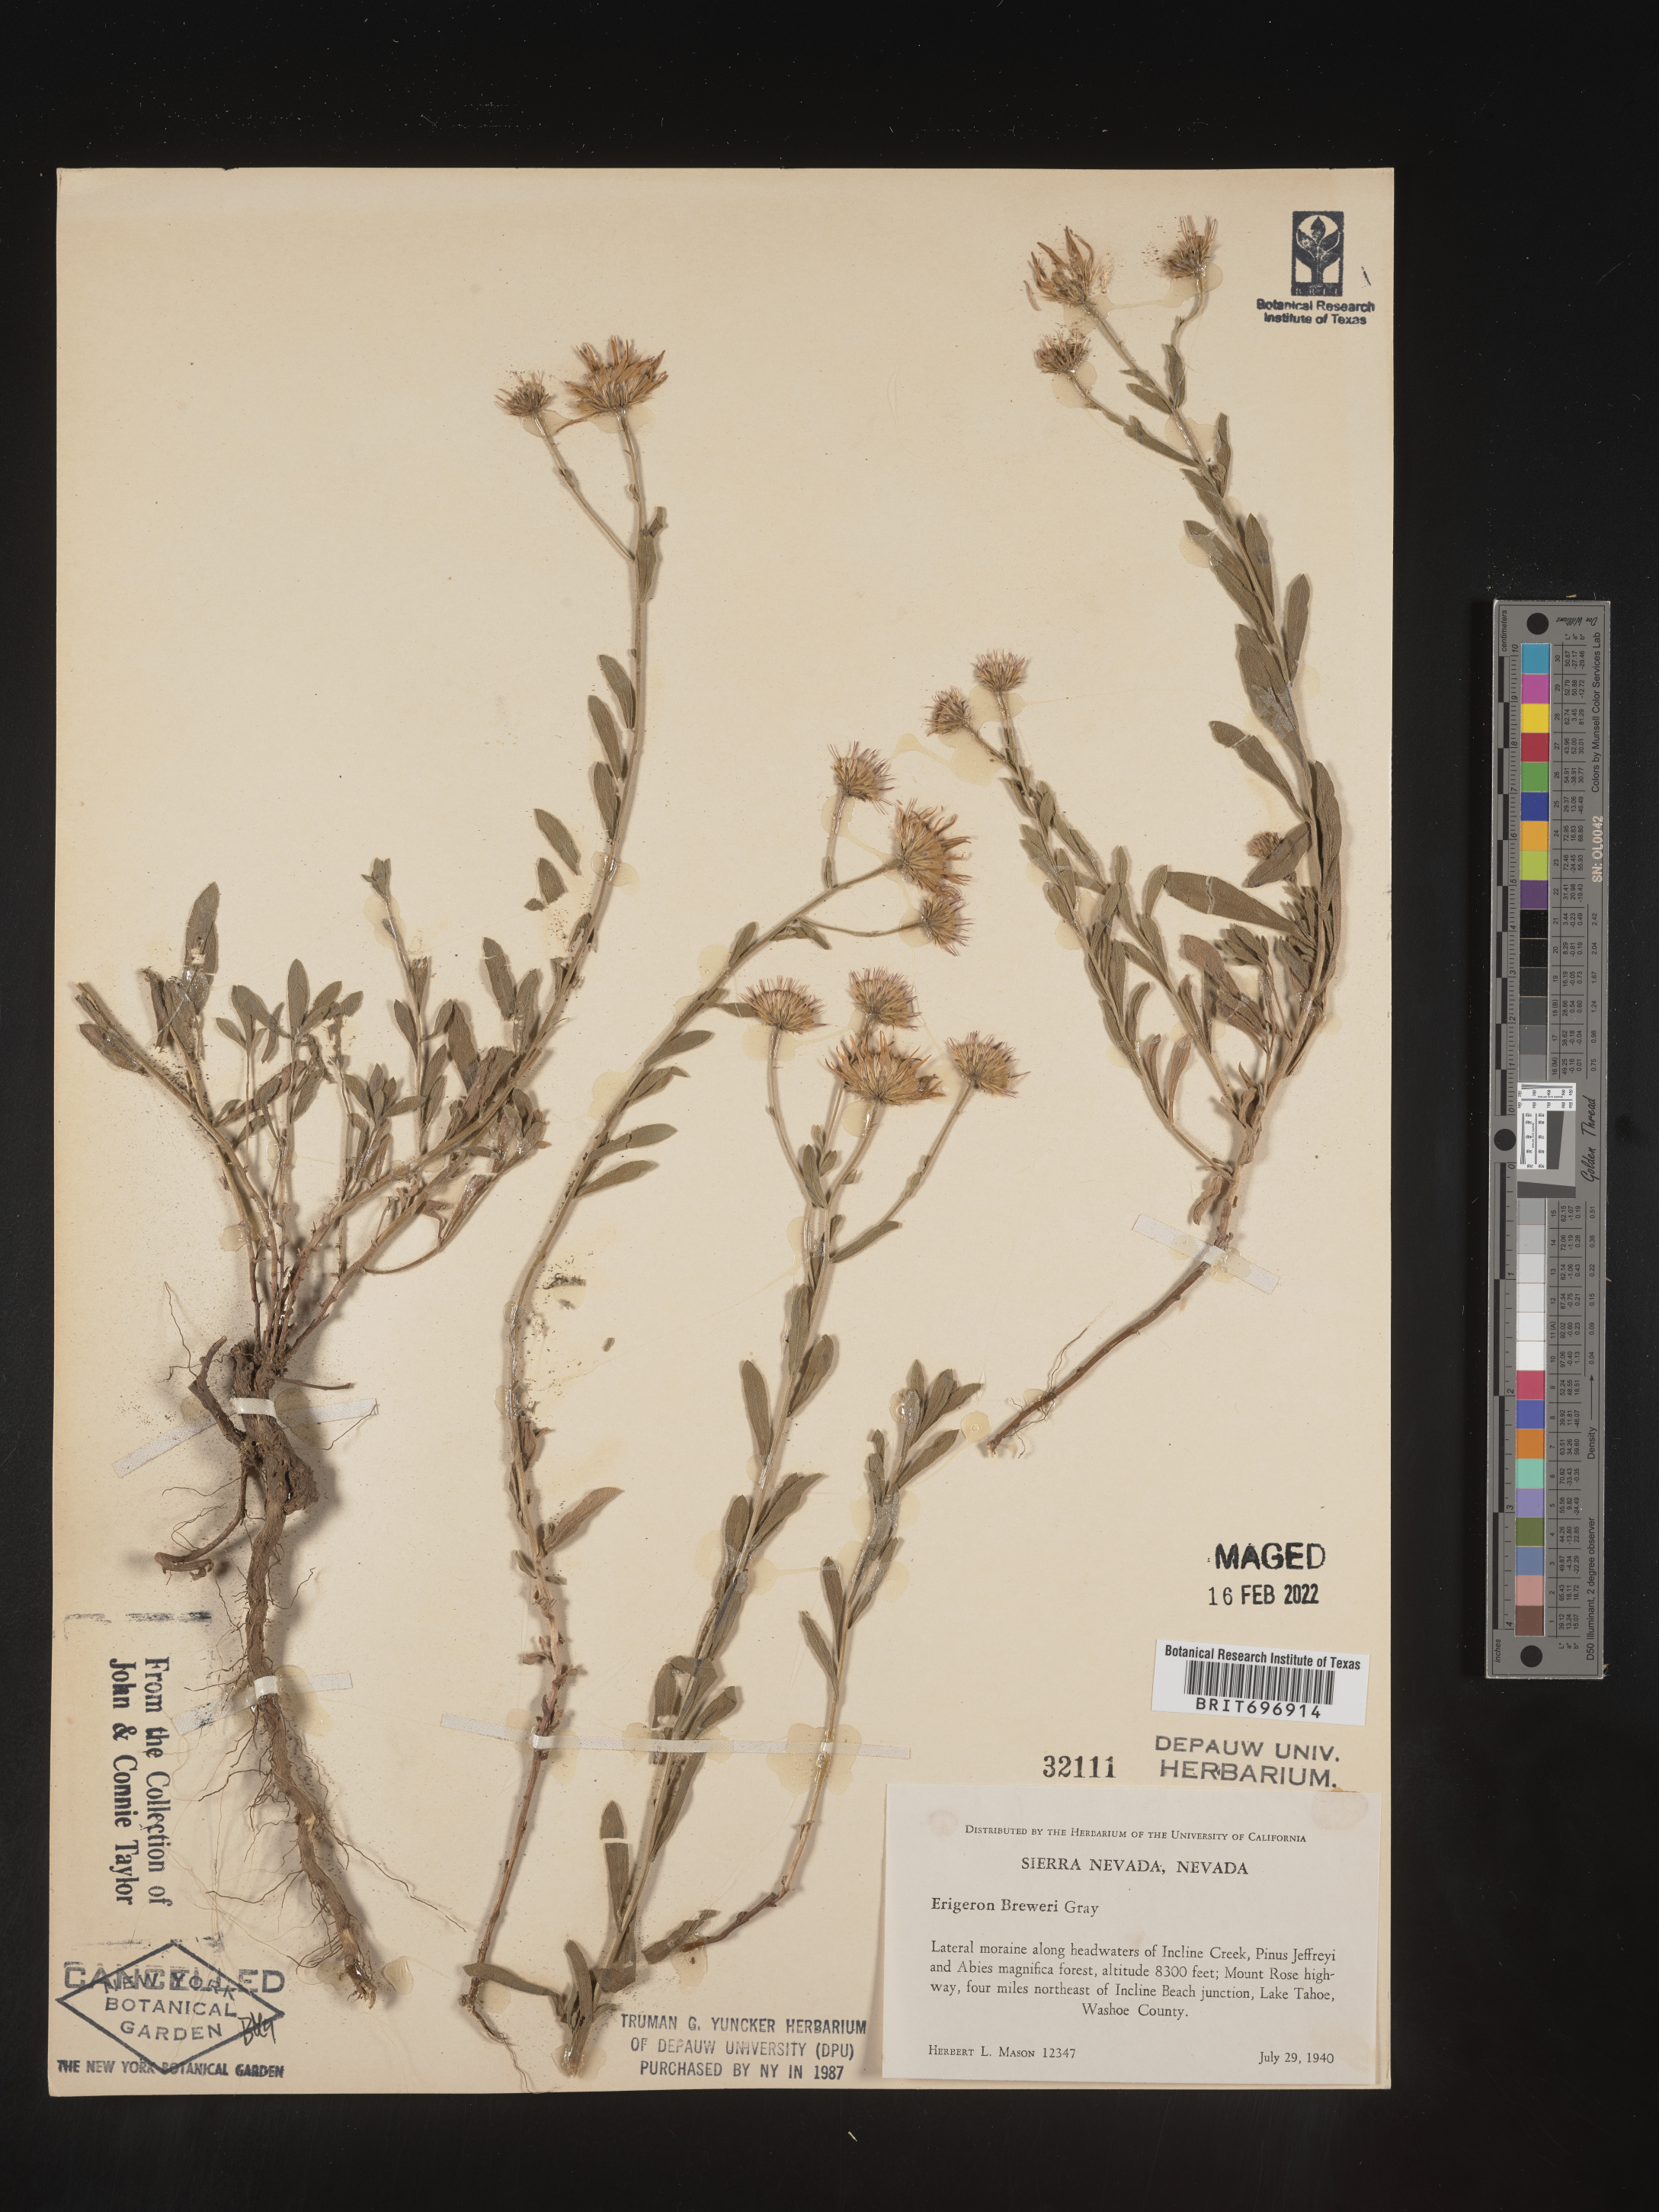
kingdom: Plantae
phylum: Tracheophyta
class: Magnoliopsida
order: Asterales
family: Asteraceae
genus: Erigeron
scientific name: Erigeron breweri
